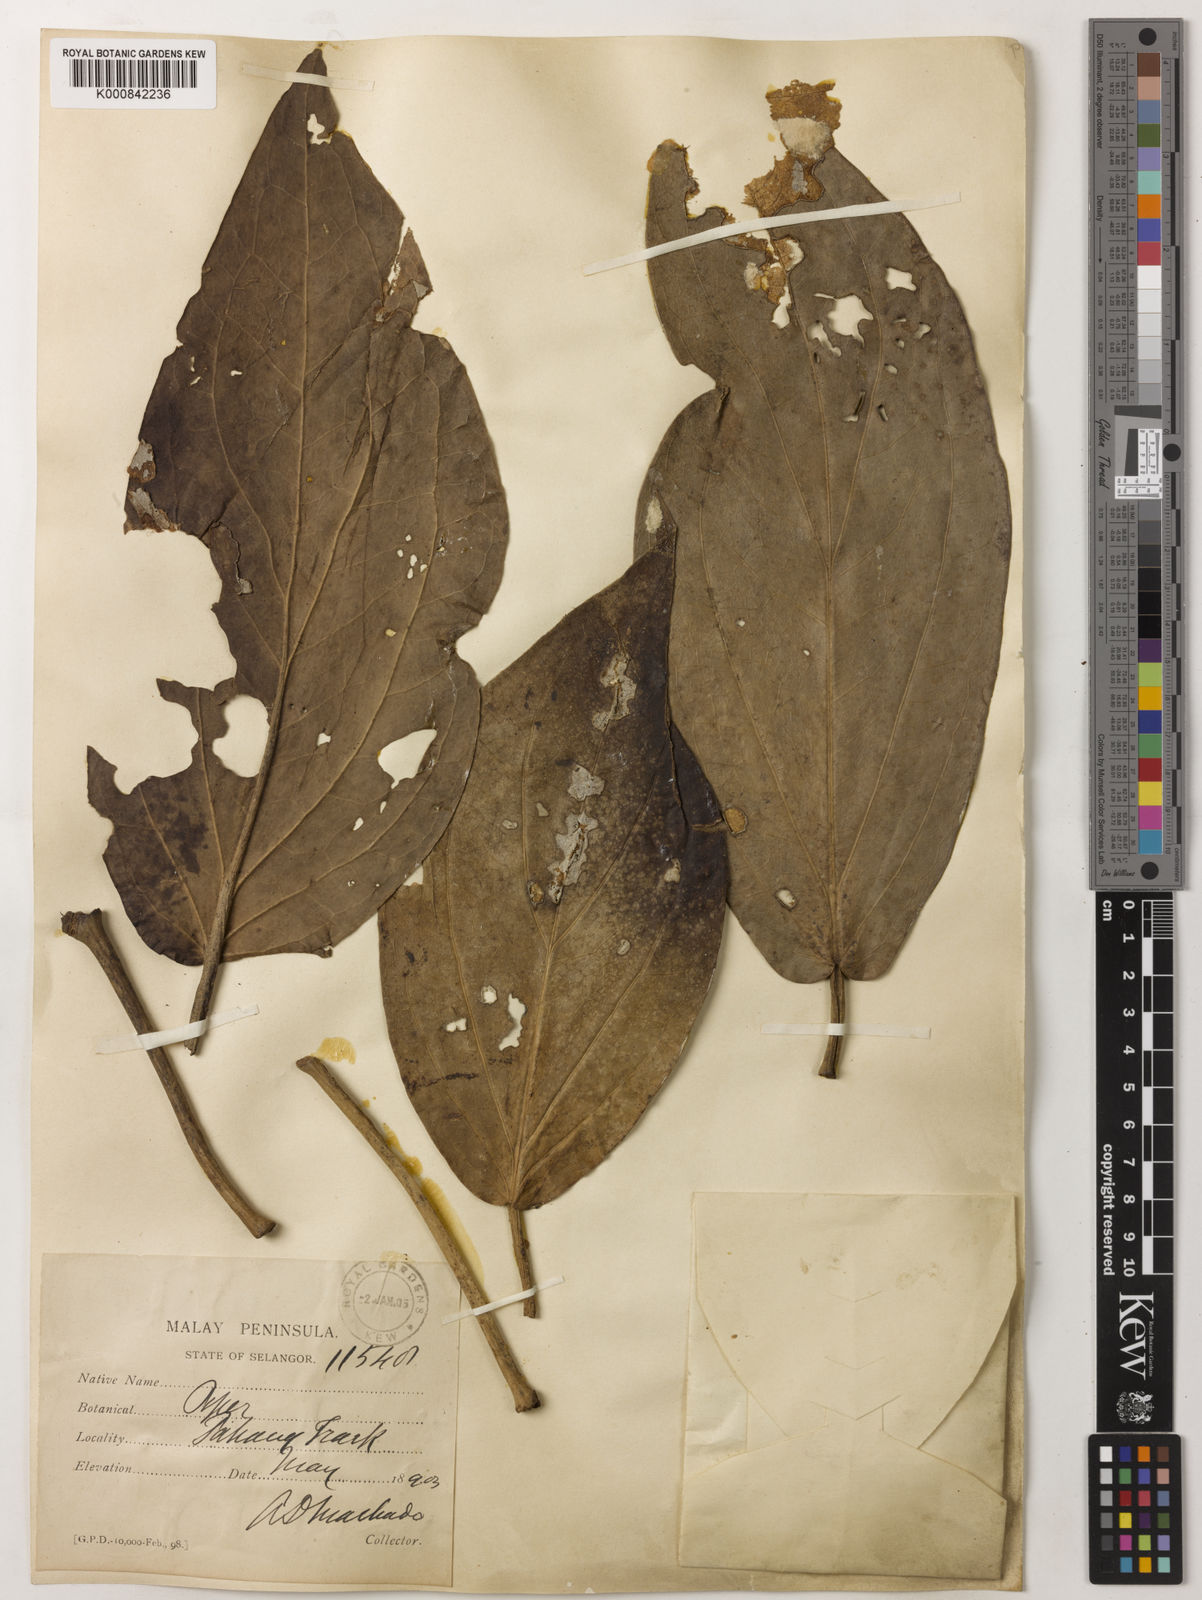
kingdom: Plantae
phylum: Tracheophyta
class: Magnoliopsida
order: Piperales
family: Piperaceae
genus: Piper
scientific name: Piper ribesioides
